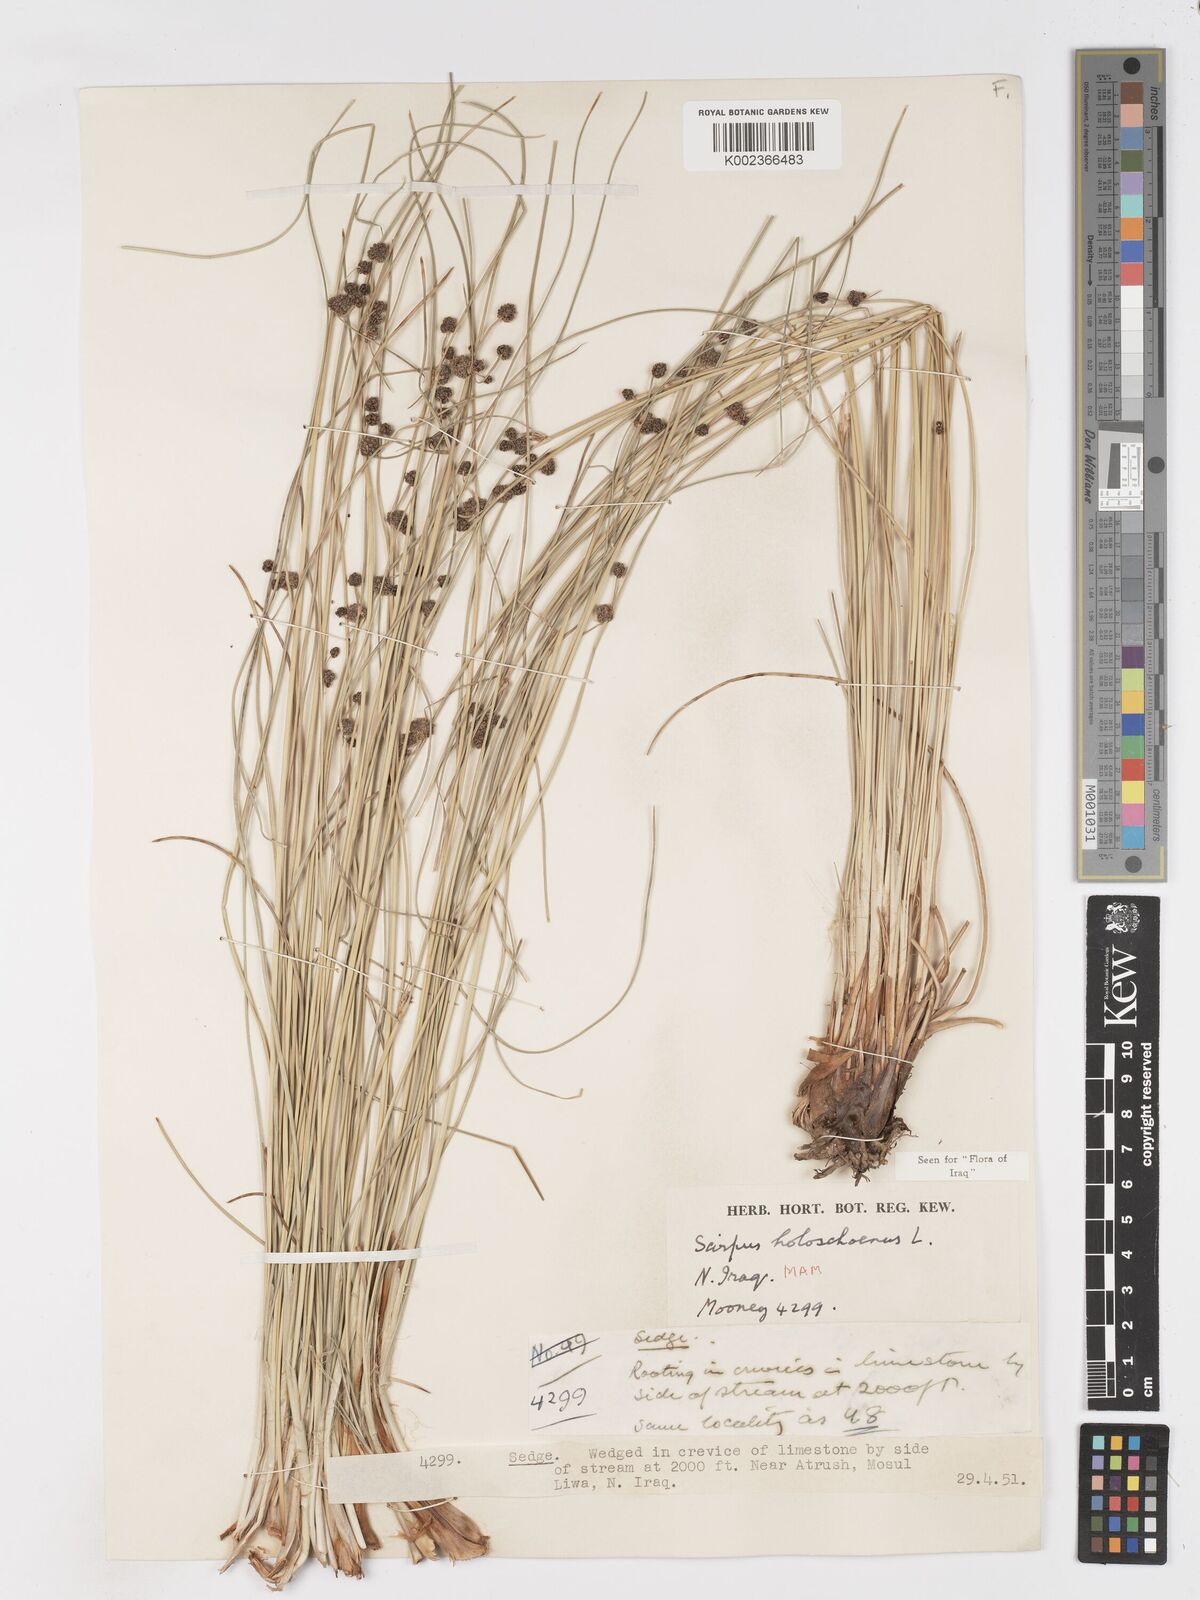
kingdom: Plantae
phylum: Tracheophyta
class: Liliopsida
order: Poales
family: Cyperaceae
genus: Scirpoides
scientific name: Scirpoides holoschoenus
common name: Round-headed club-rush
